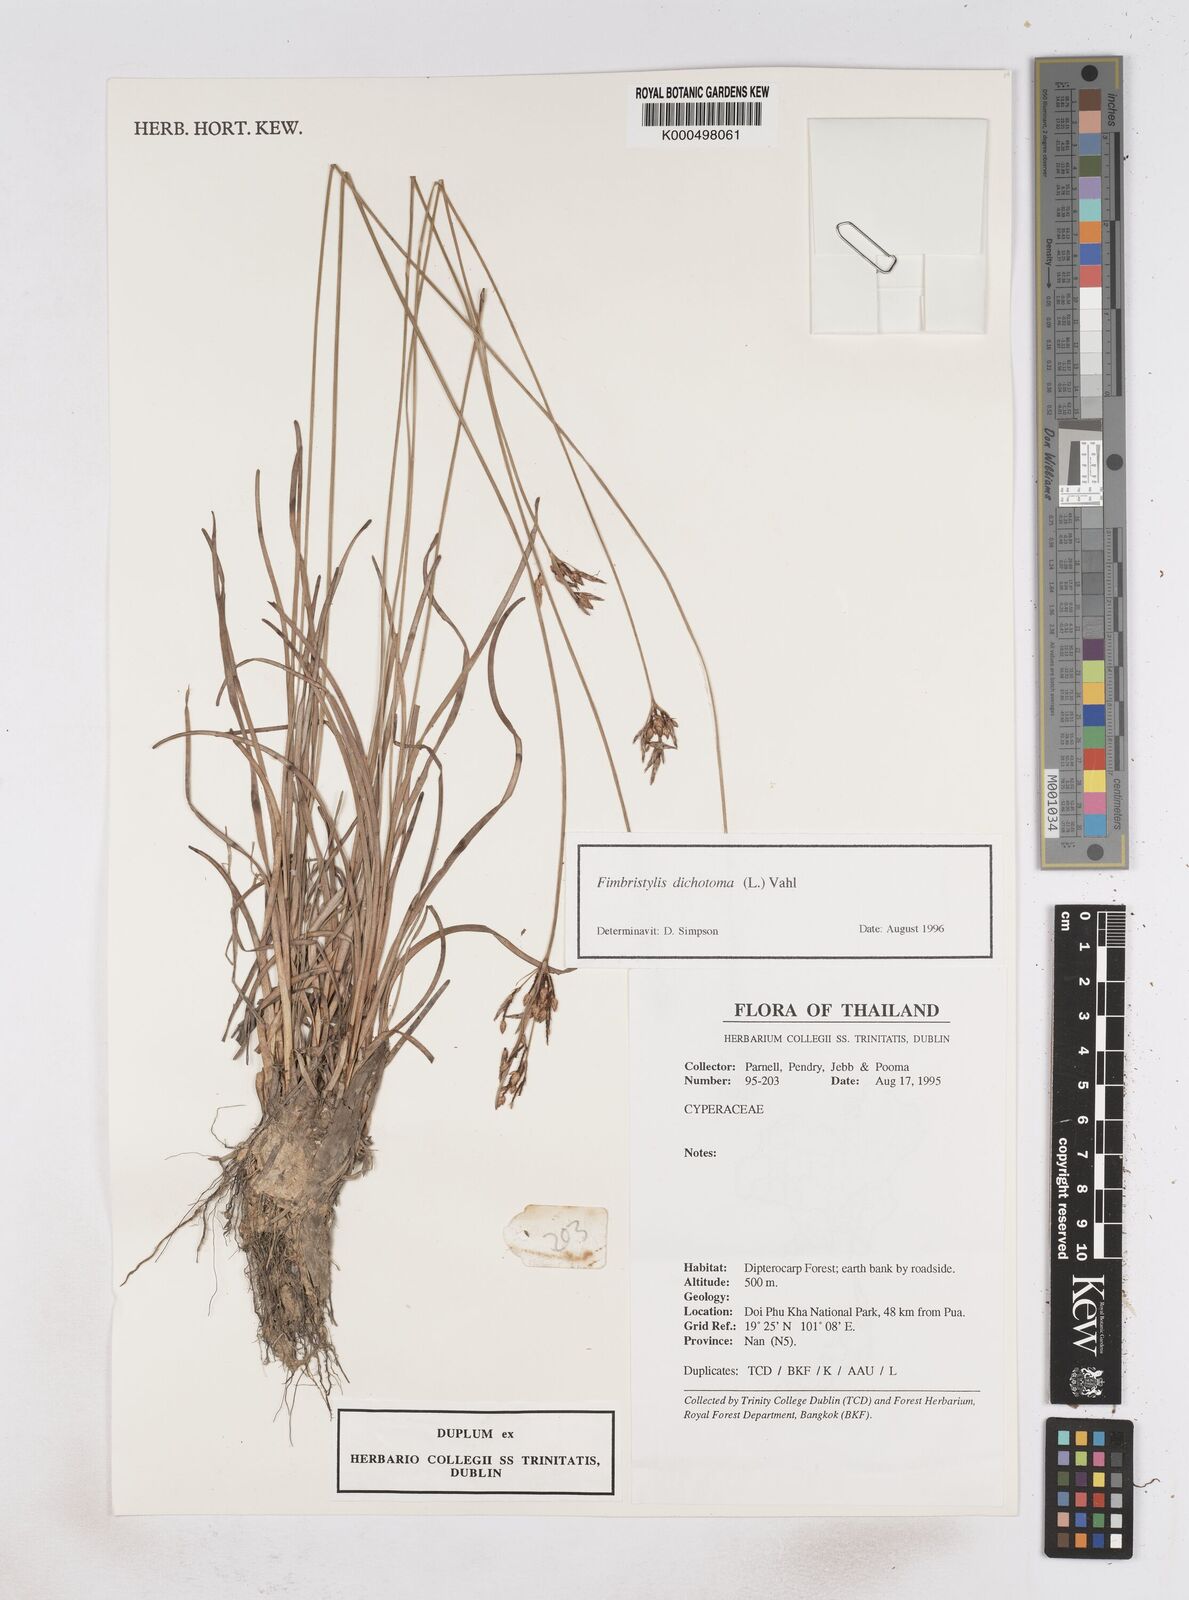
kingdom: Plantae
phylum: Tracheophyta
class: Liliopsida
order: Poales
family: Cyperaceae
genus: Fimbristylis
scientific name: Fimbristylis dichotoma
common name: Forked fimbry
